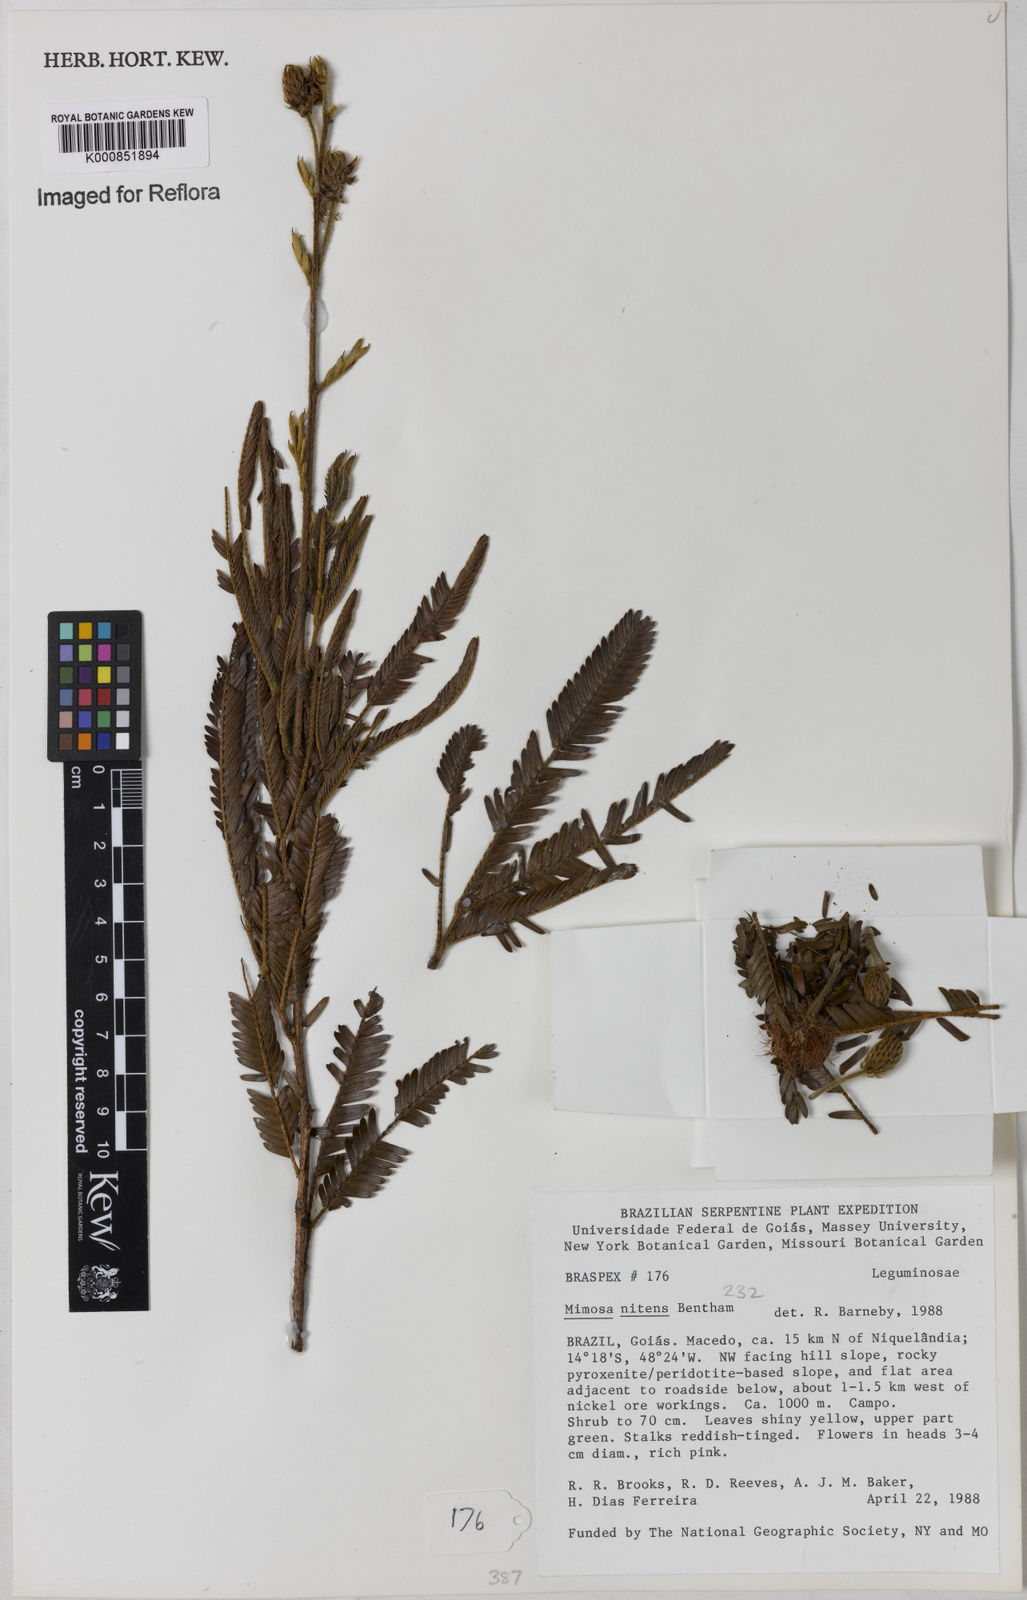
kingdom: Plantae
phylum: Tracheophyta
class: Magnoliopsida
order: Fabales
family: Fabaceae
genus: Mimosa
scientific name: Mimosa foliolosa
